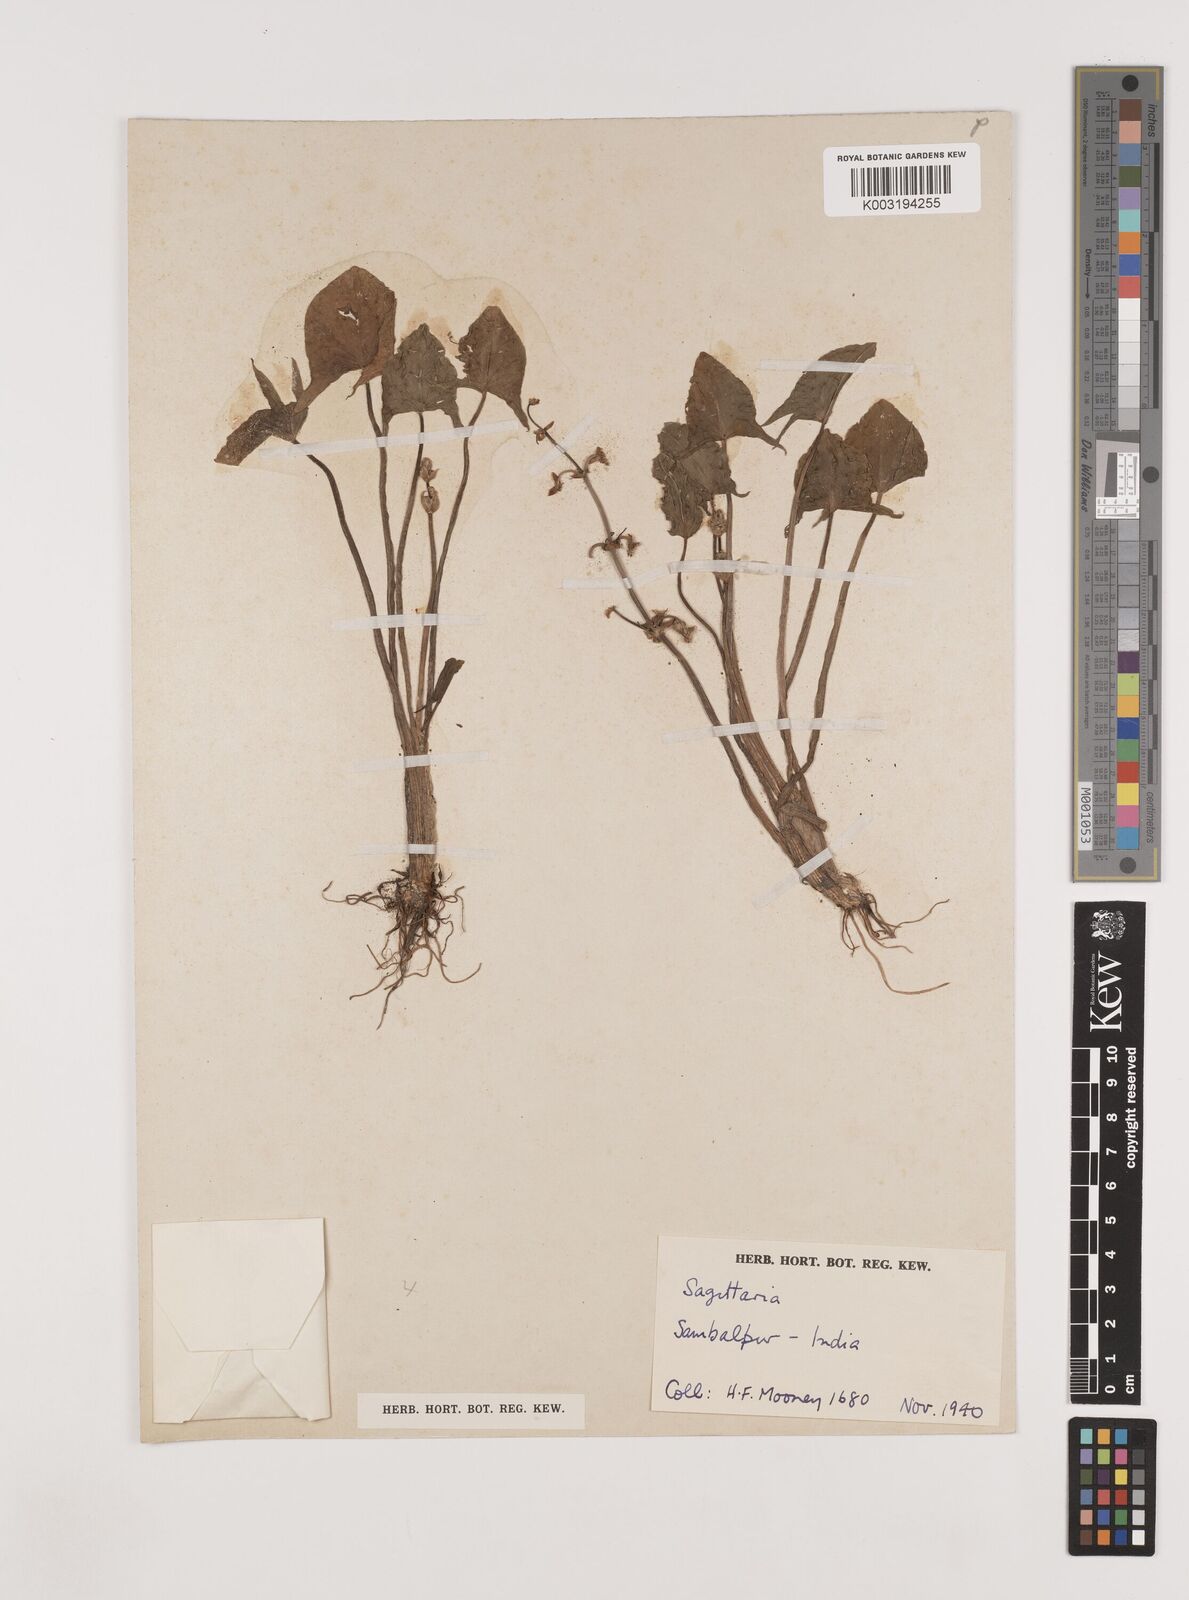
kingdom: Plantae
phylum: Tracheophyta
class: Liliopsida
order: Alismatales
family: Alismataceae
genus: Limnophyton
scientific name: Limnophyton
